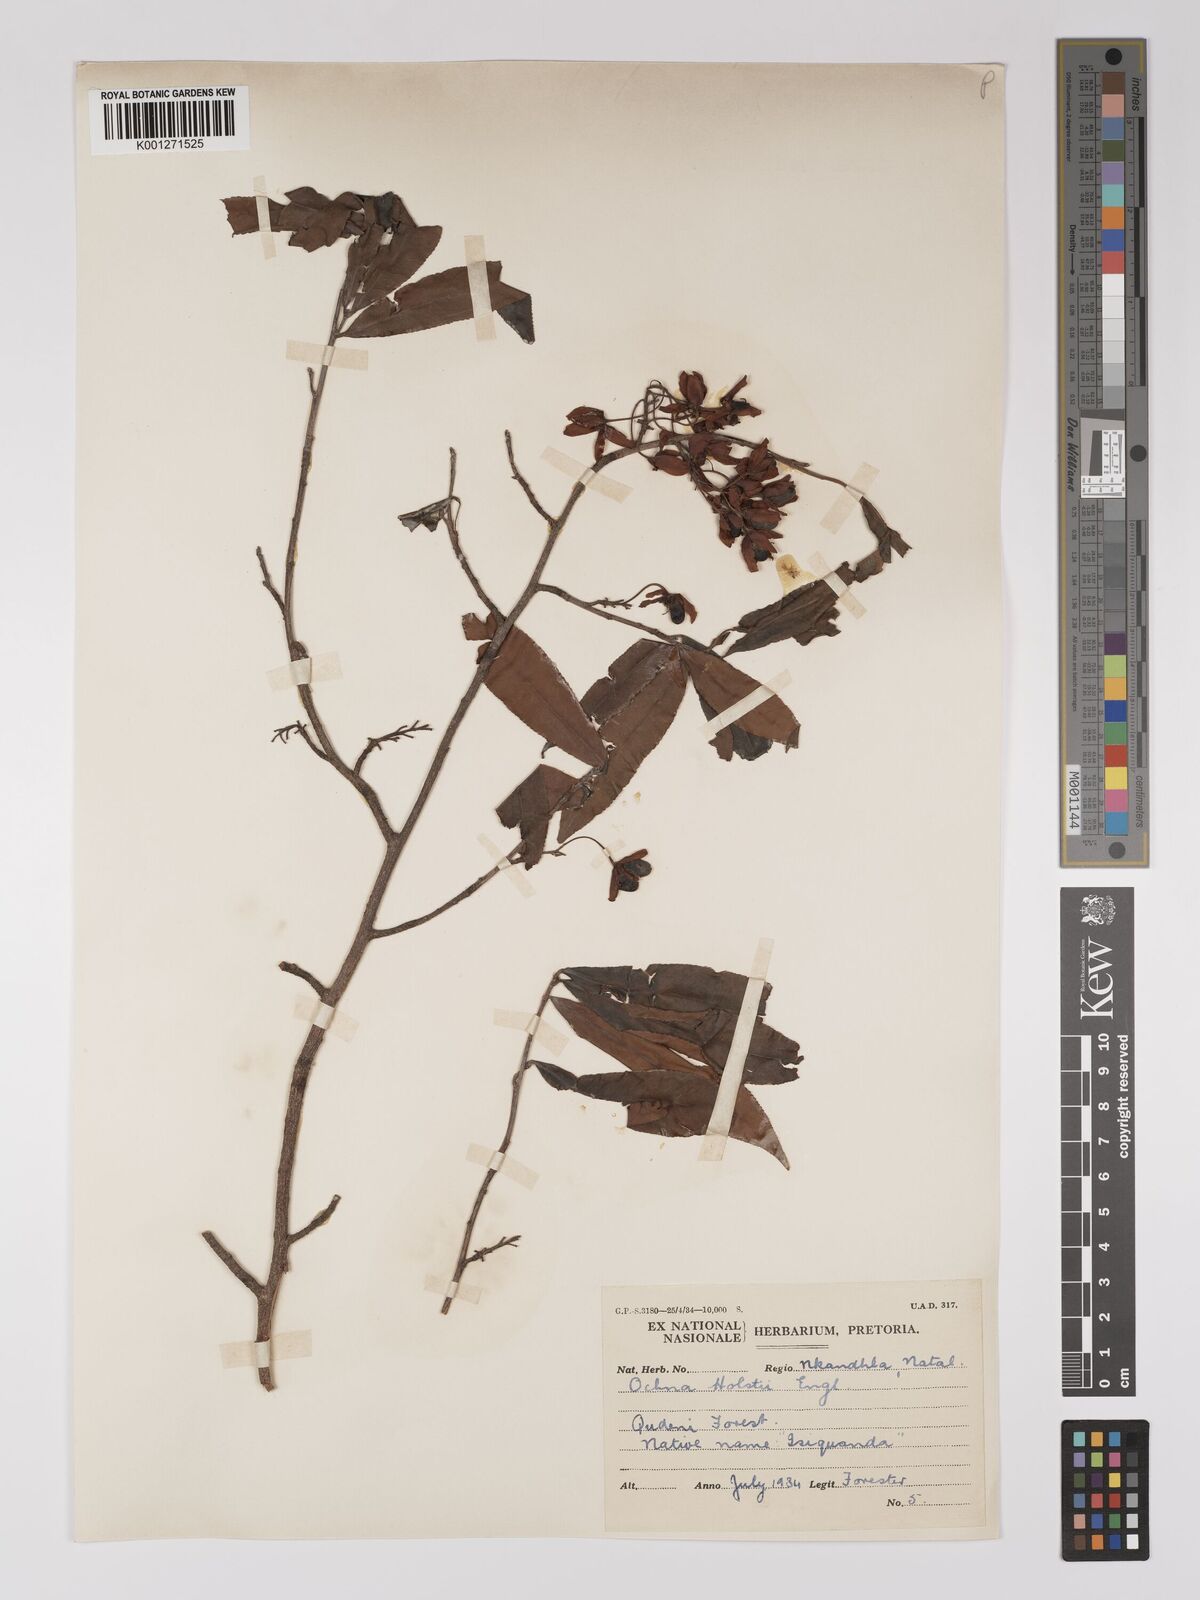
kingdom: Plantae
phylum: Tracheophyta
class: Magnoliopsida
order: Malpighiales
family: Ochnaceae
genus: Ochna
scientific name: Ochna holstii
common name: Red ironwood
